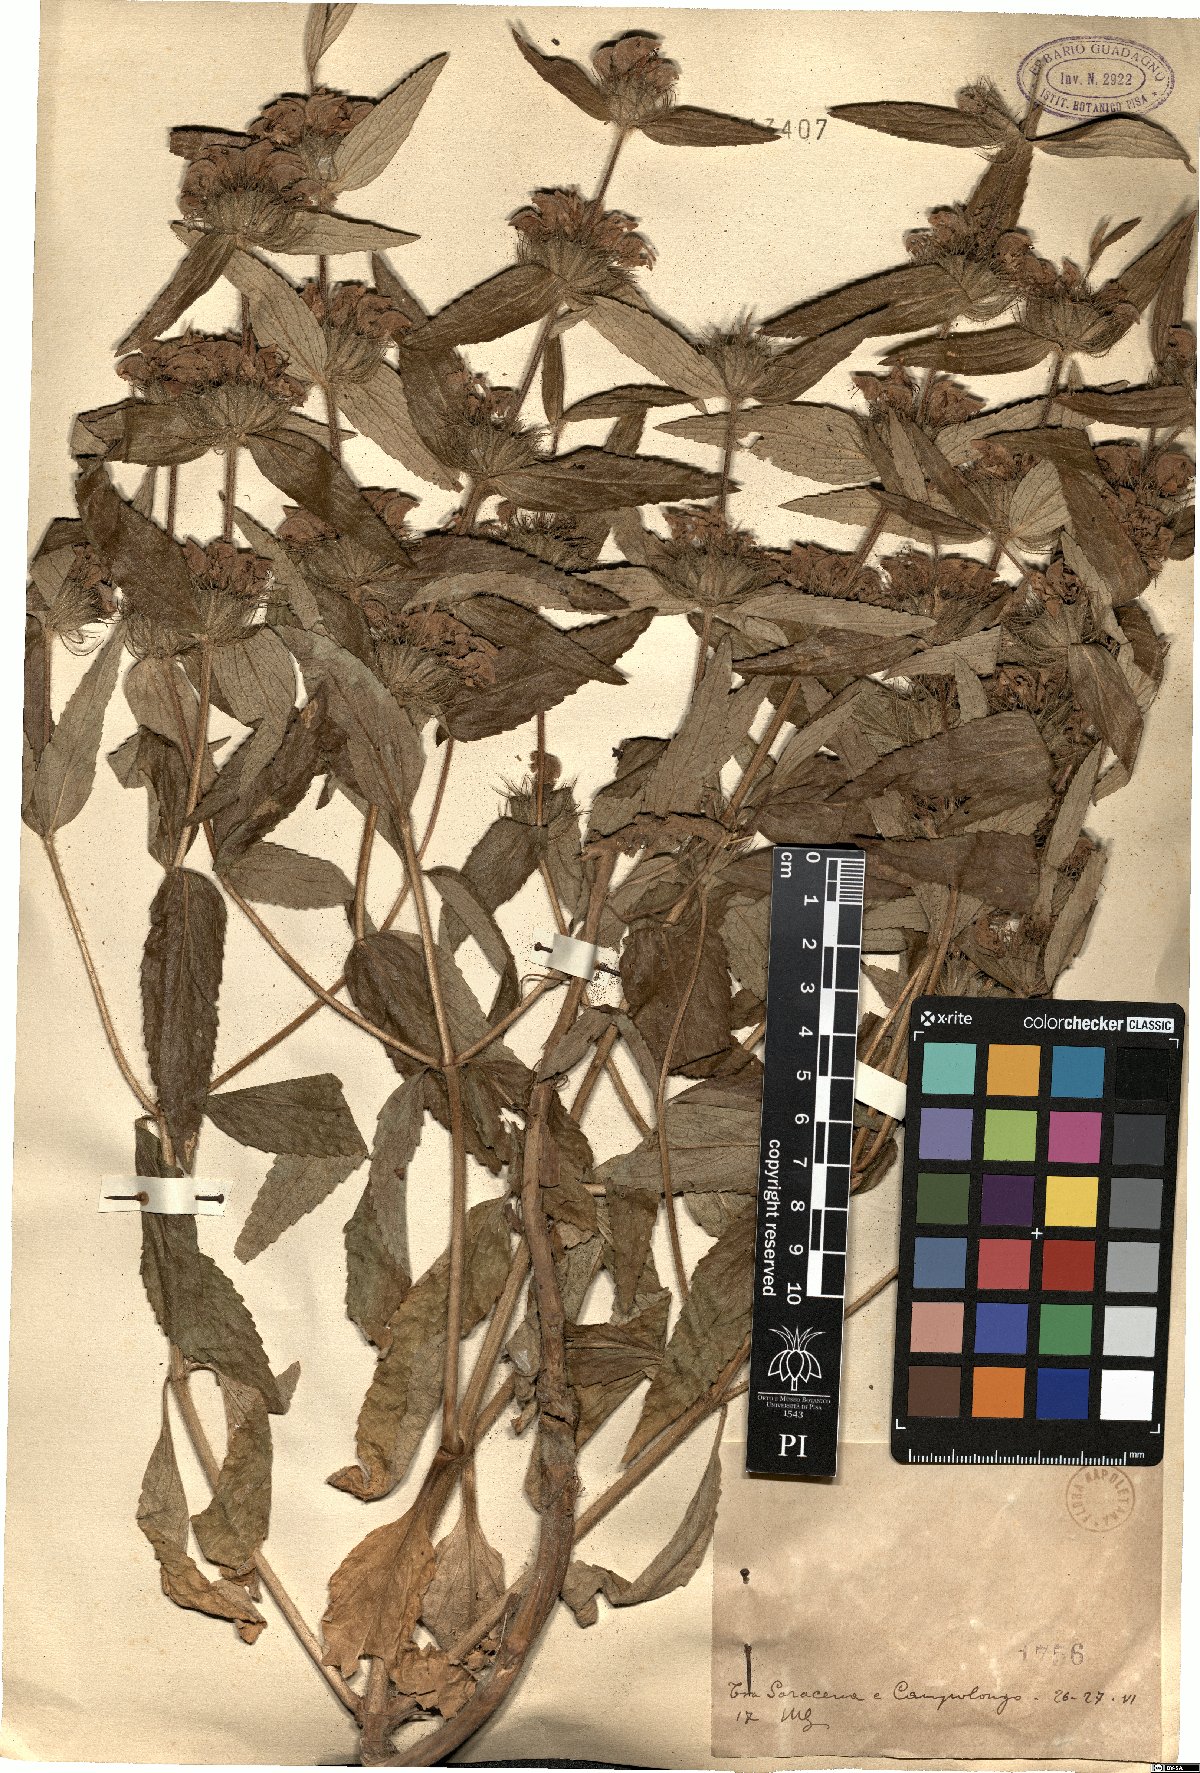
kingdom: Plantae
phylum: Tracheophyta
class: Magnoliopsida
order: Lamiales
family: Lamiaceae
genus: Stachys
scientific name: Stachys
